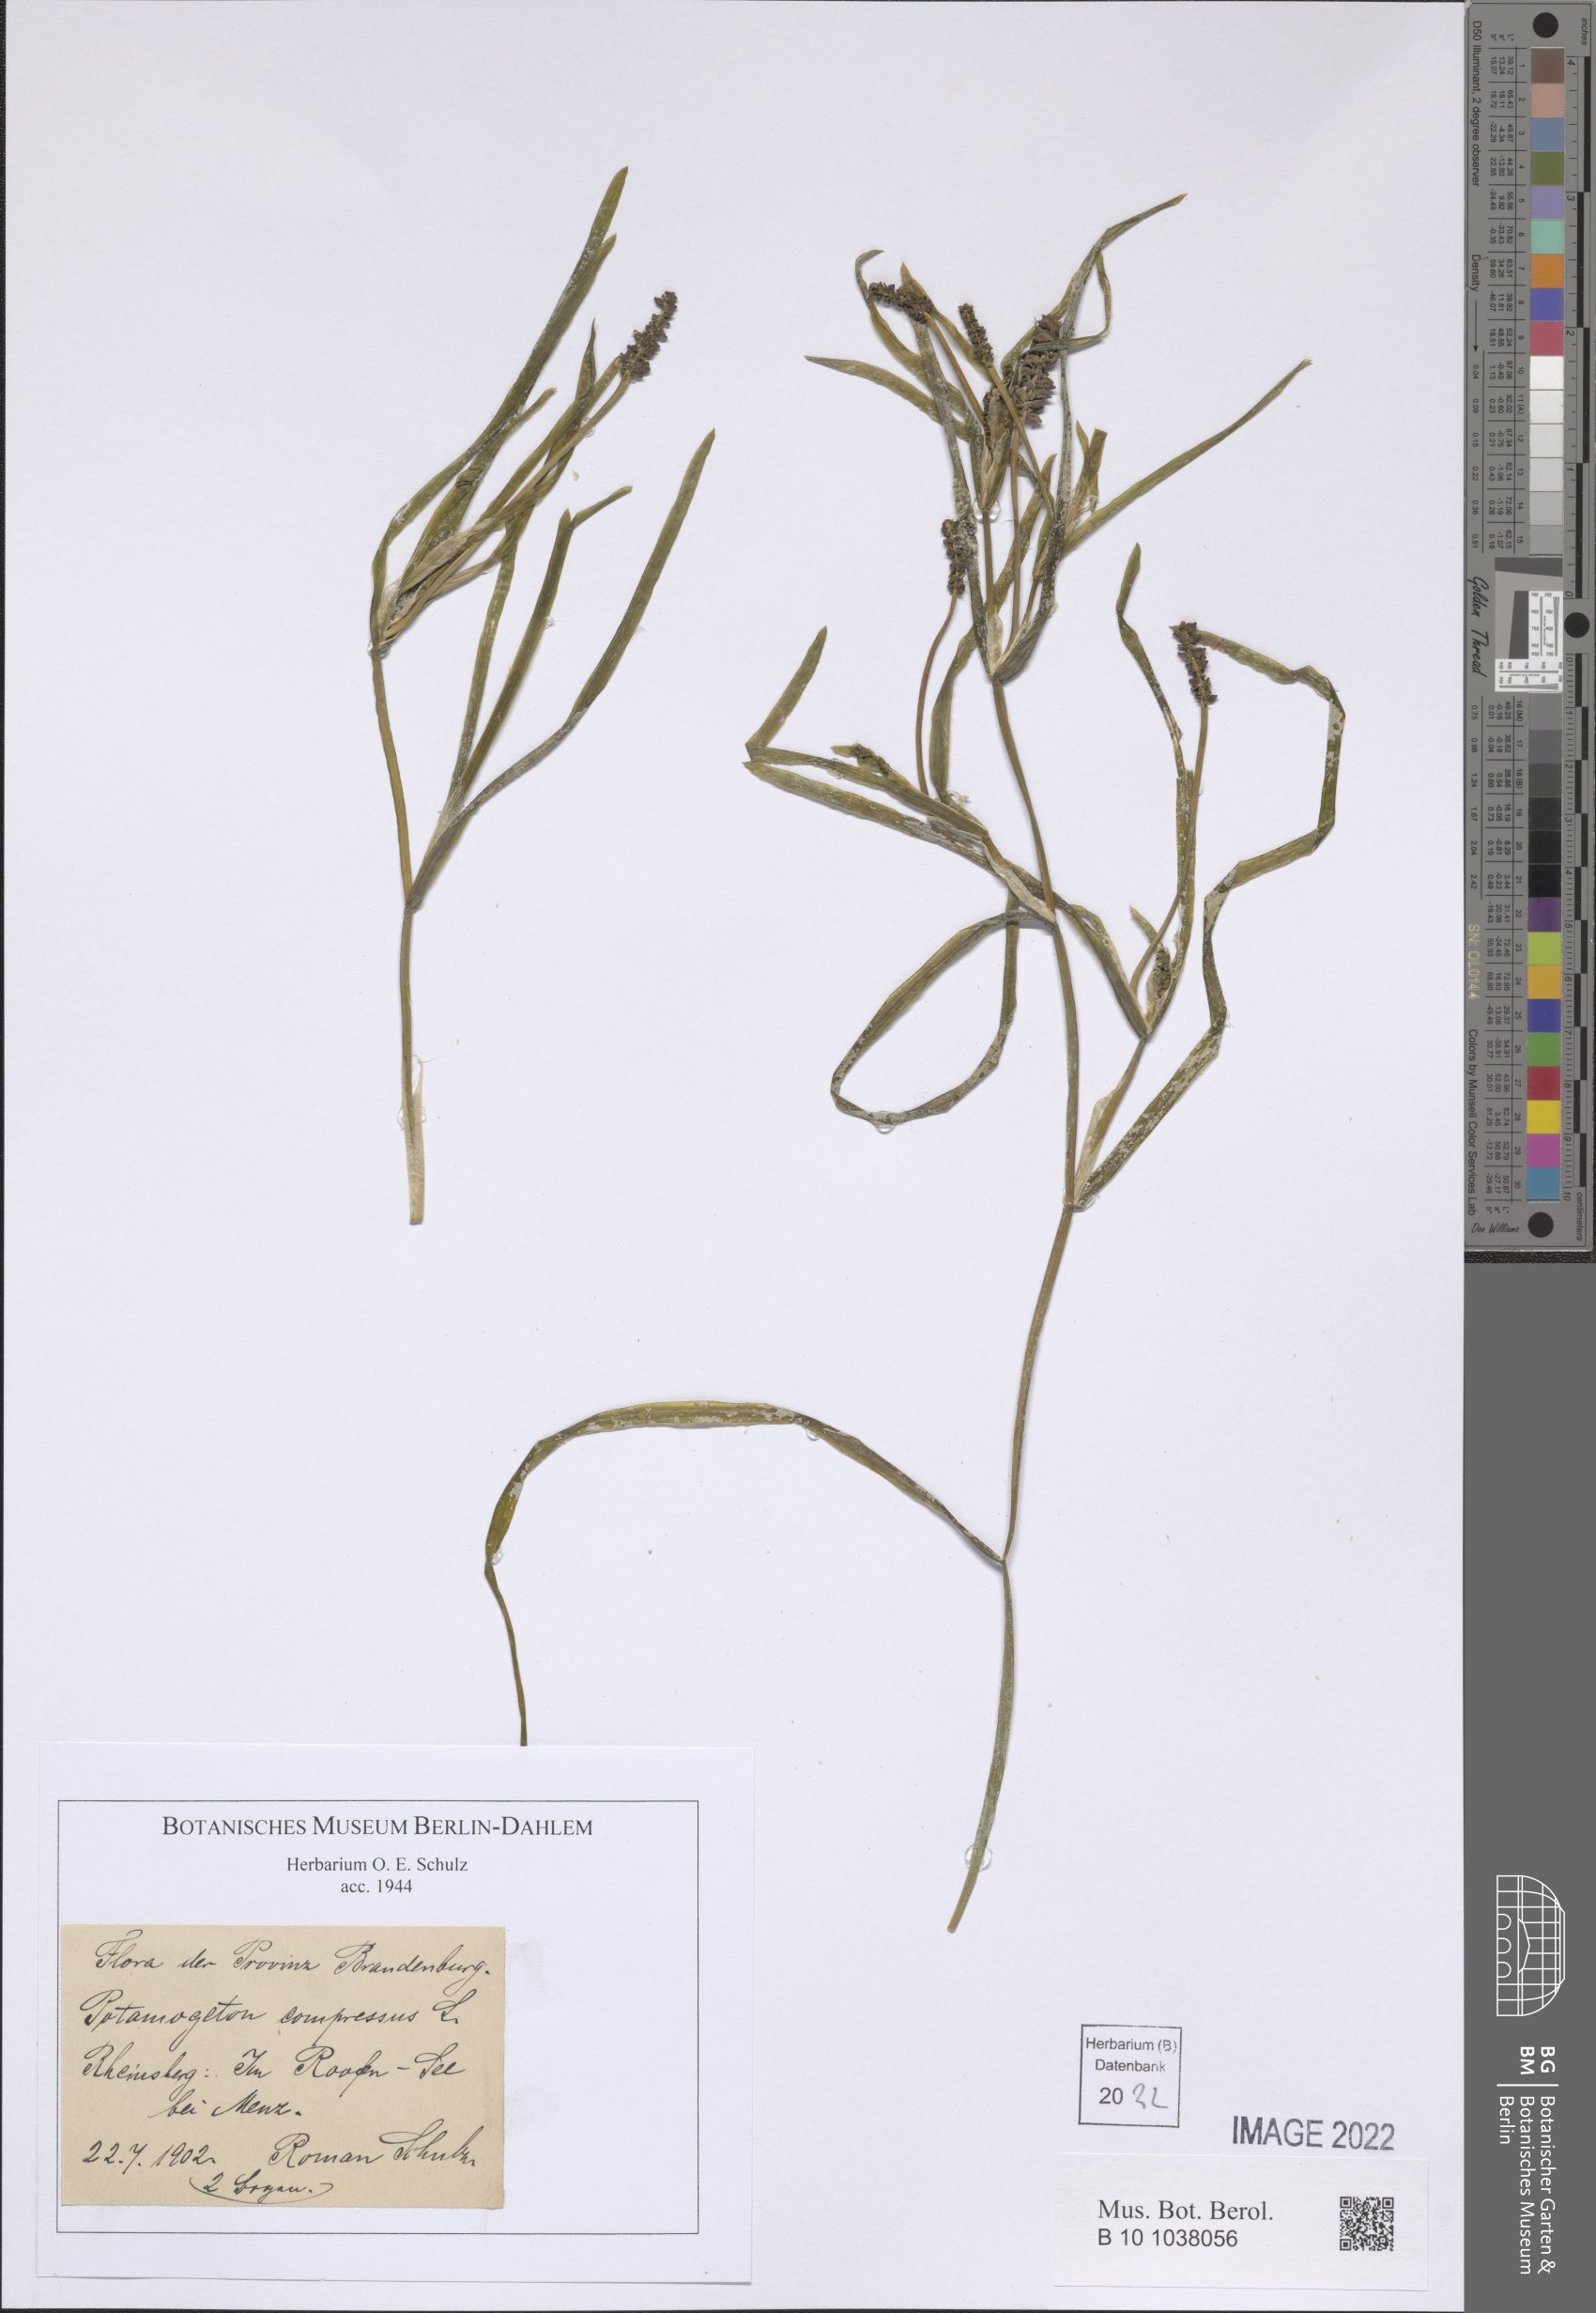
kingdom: Plantae
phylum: Tracheophyta
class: Liliopsida
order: Alismatales
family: Potamogetonaceae
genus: Potamogeton
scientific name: Potamogeton compressus
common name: Grass-wrack pondweed
